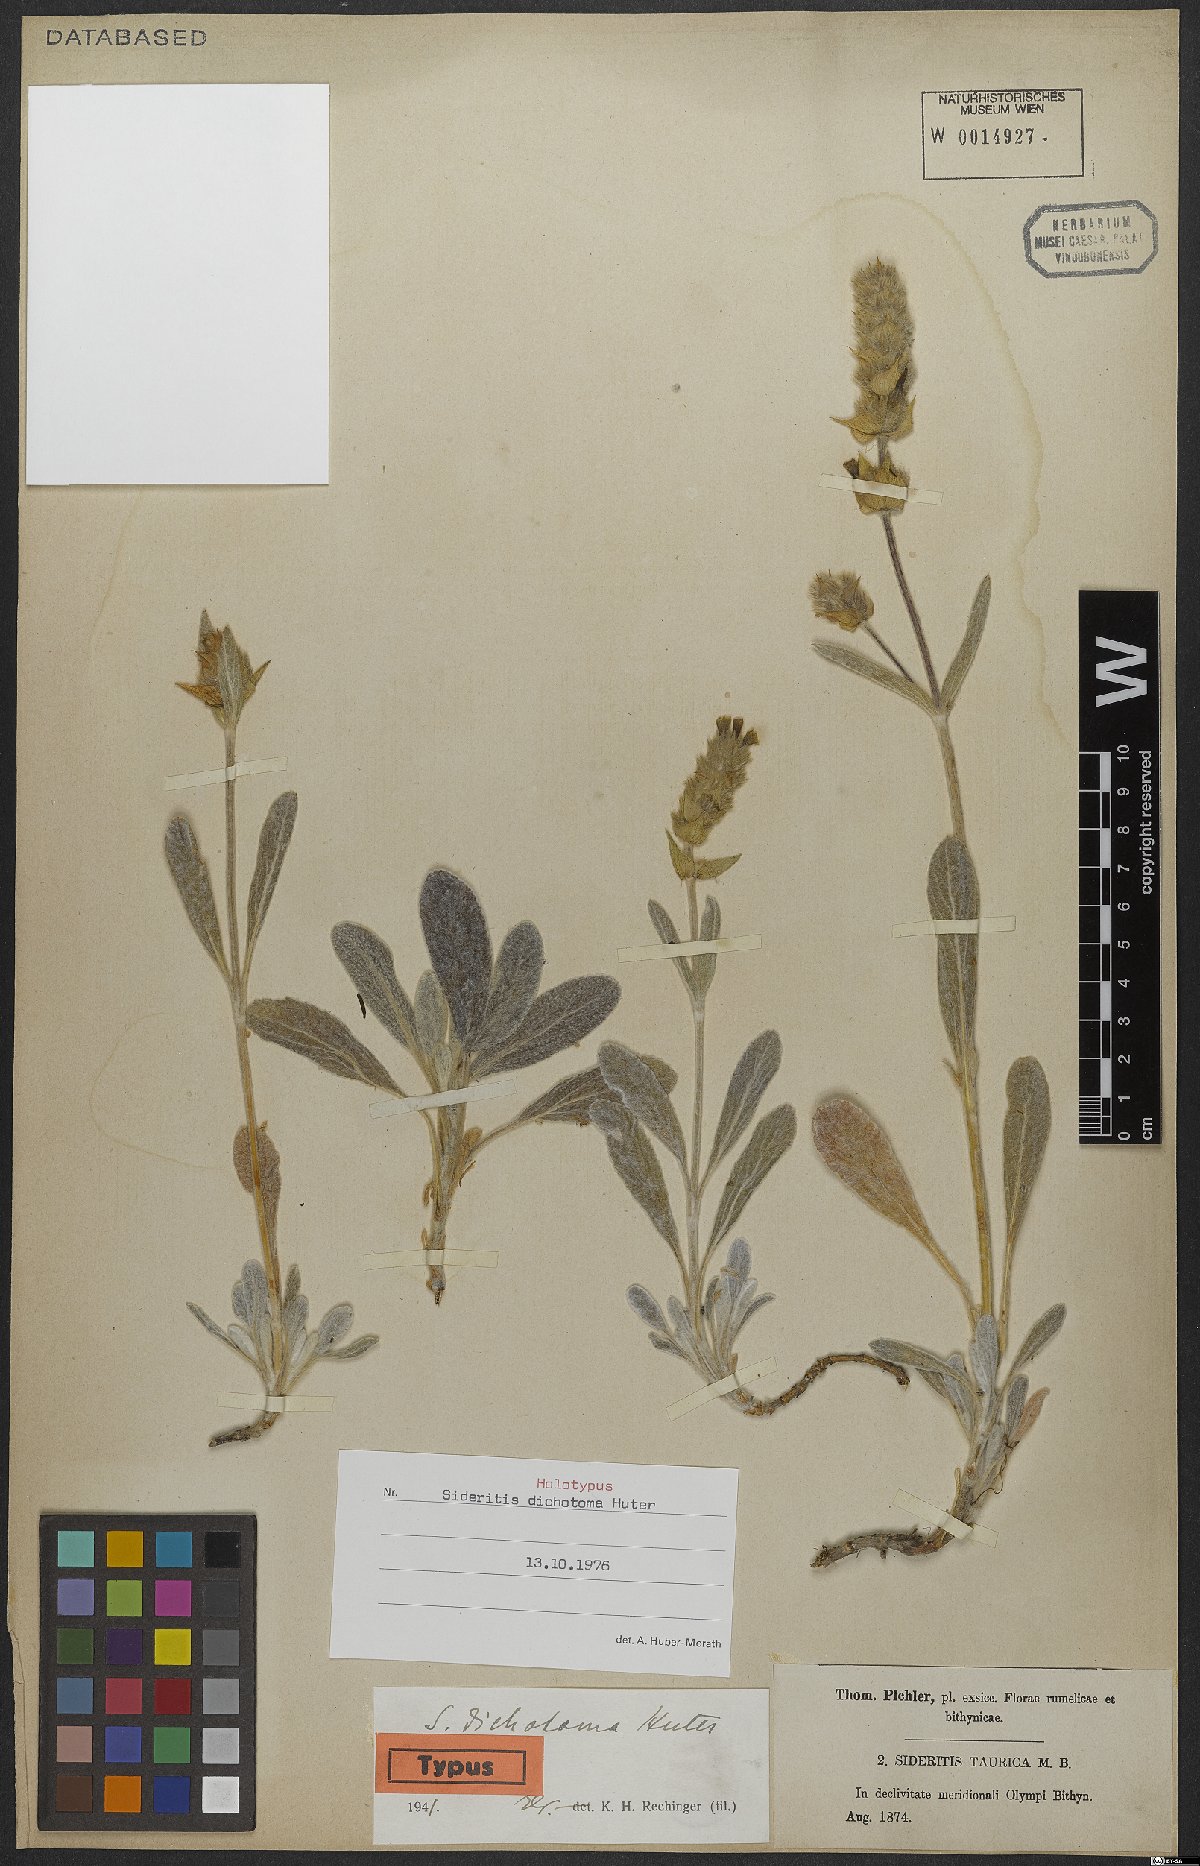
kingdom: Plantae
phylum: Tracheophyta
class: Magnoliopsida
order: Lamiales
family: Lamiaceae
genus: Sideritis
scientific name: Sideritis dichotoma
